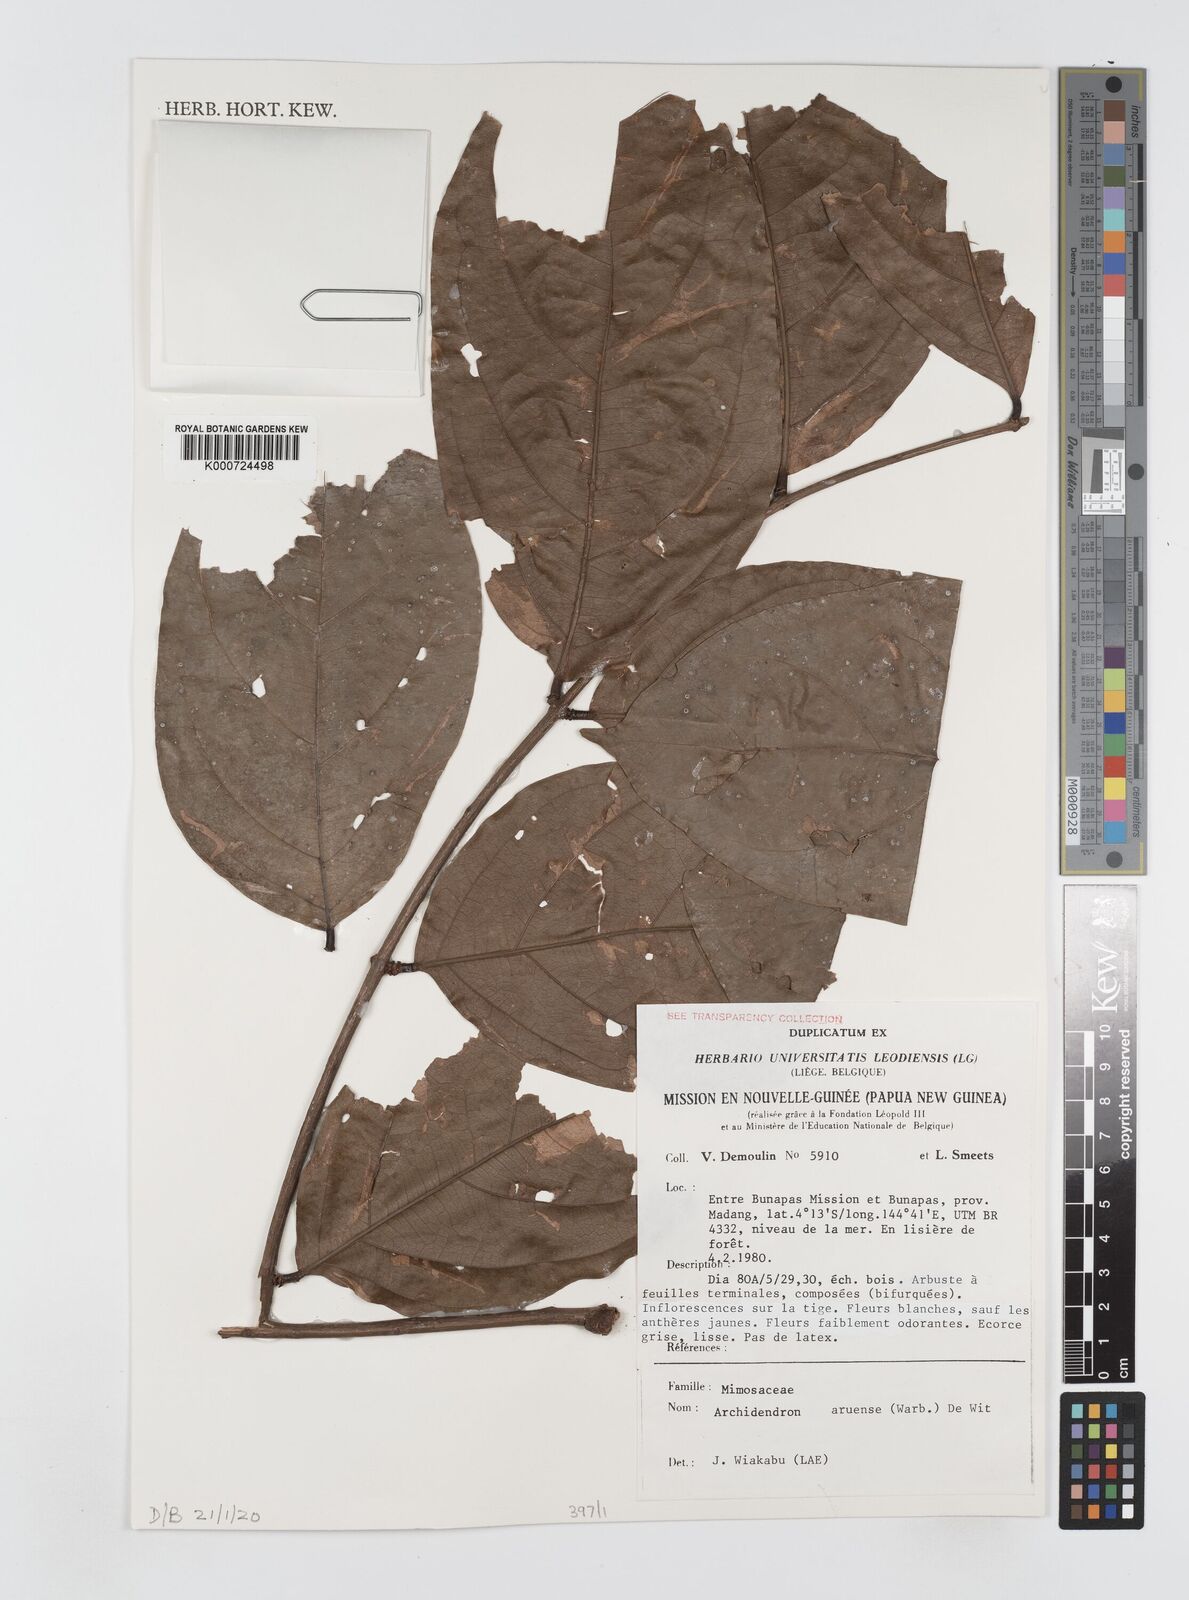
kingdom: Plantae
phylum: Tracheophyta
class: Magnoliopsida
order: Fabales
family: Fabaceae
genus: Archidendron
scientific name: Archidendron aruense
